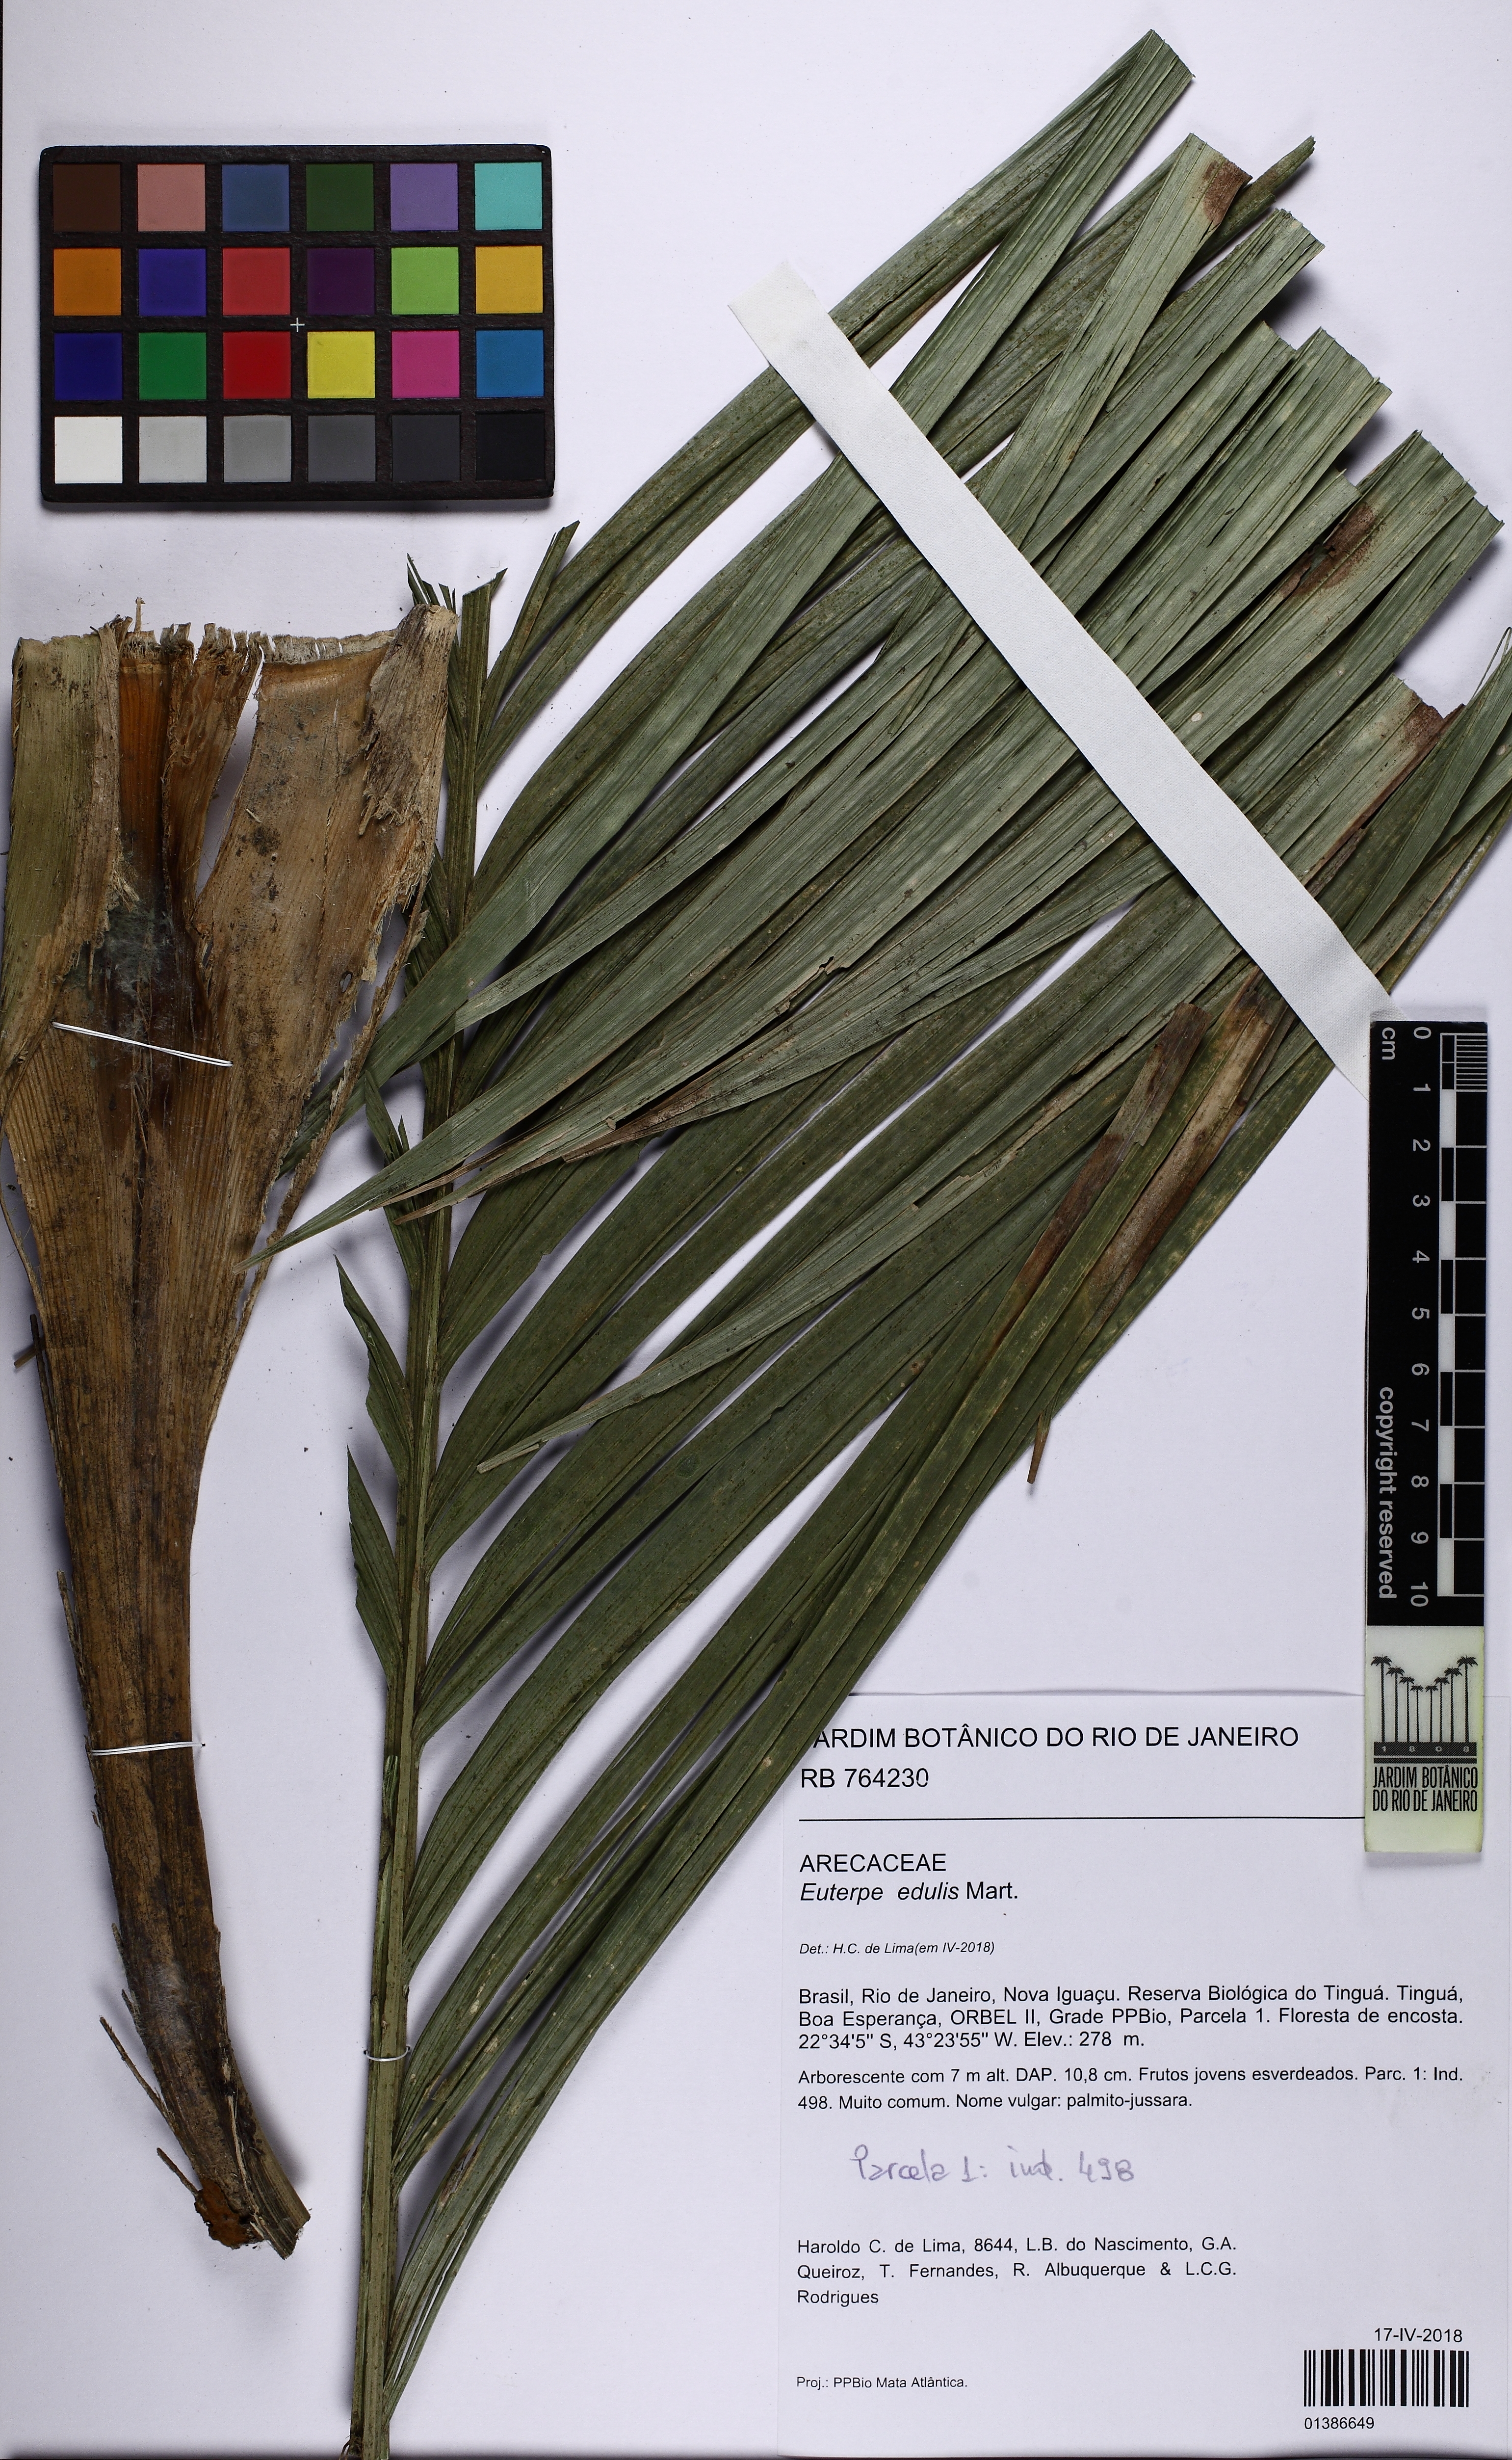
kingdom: Plantae
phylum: Tracheophyta
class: Liliopsida
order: Arecales
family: Arecaceae
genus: Euterpe
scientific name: Euterpe edulis
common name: Assai palm
